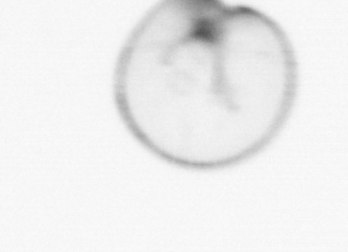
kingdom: Chromista
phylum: Myzozoa
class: Dinophyceae
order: Noctilucales
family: Noctilucaceae
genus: Noctiluca
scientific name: Noctiluca scintillans
